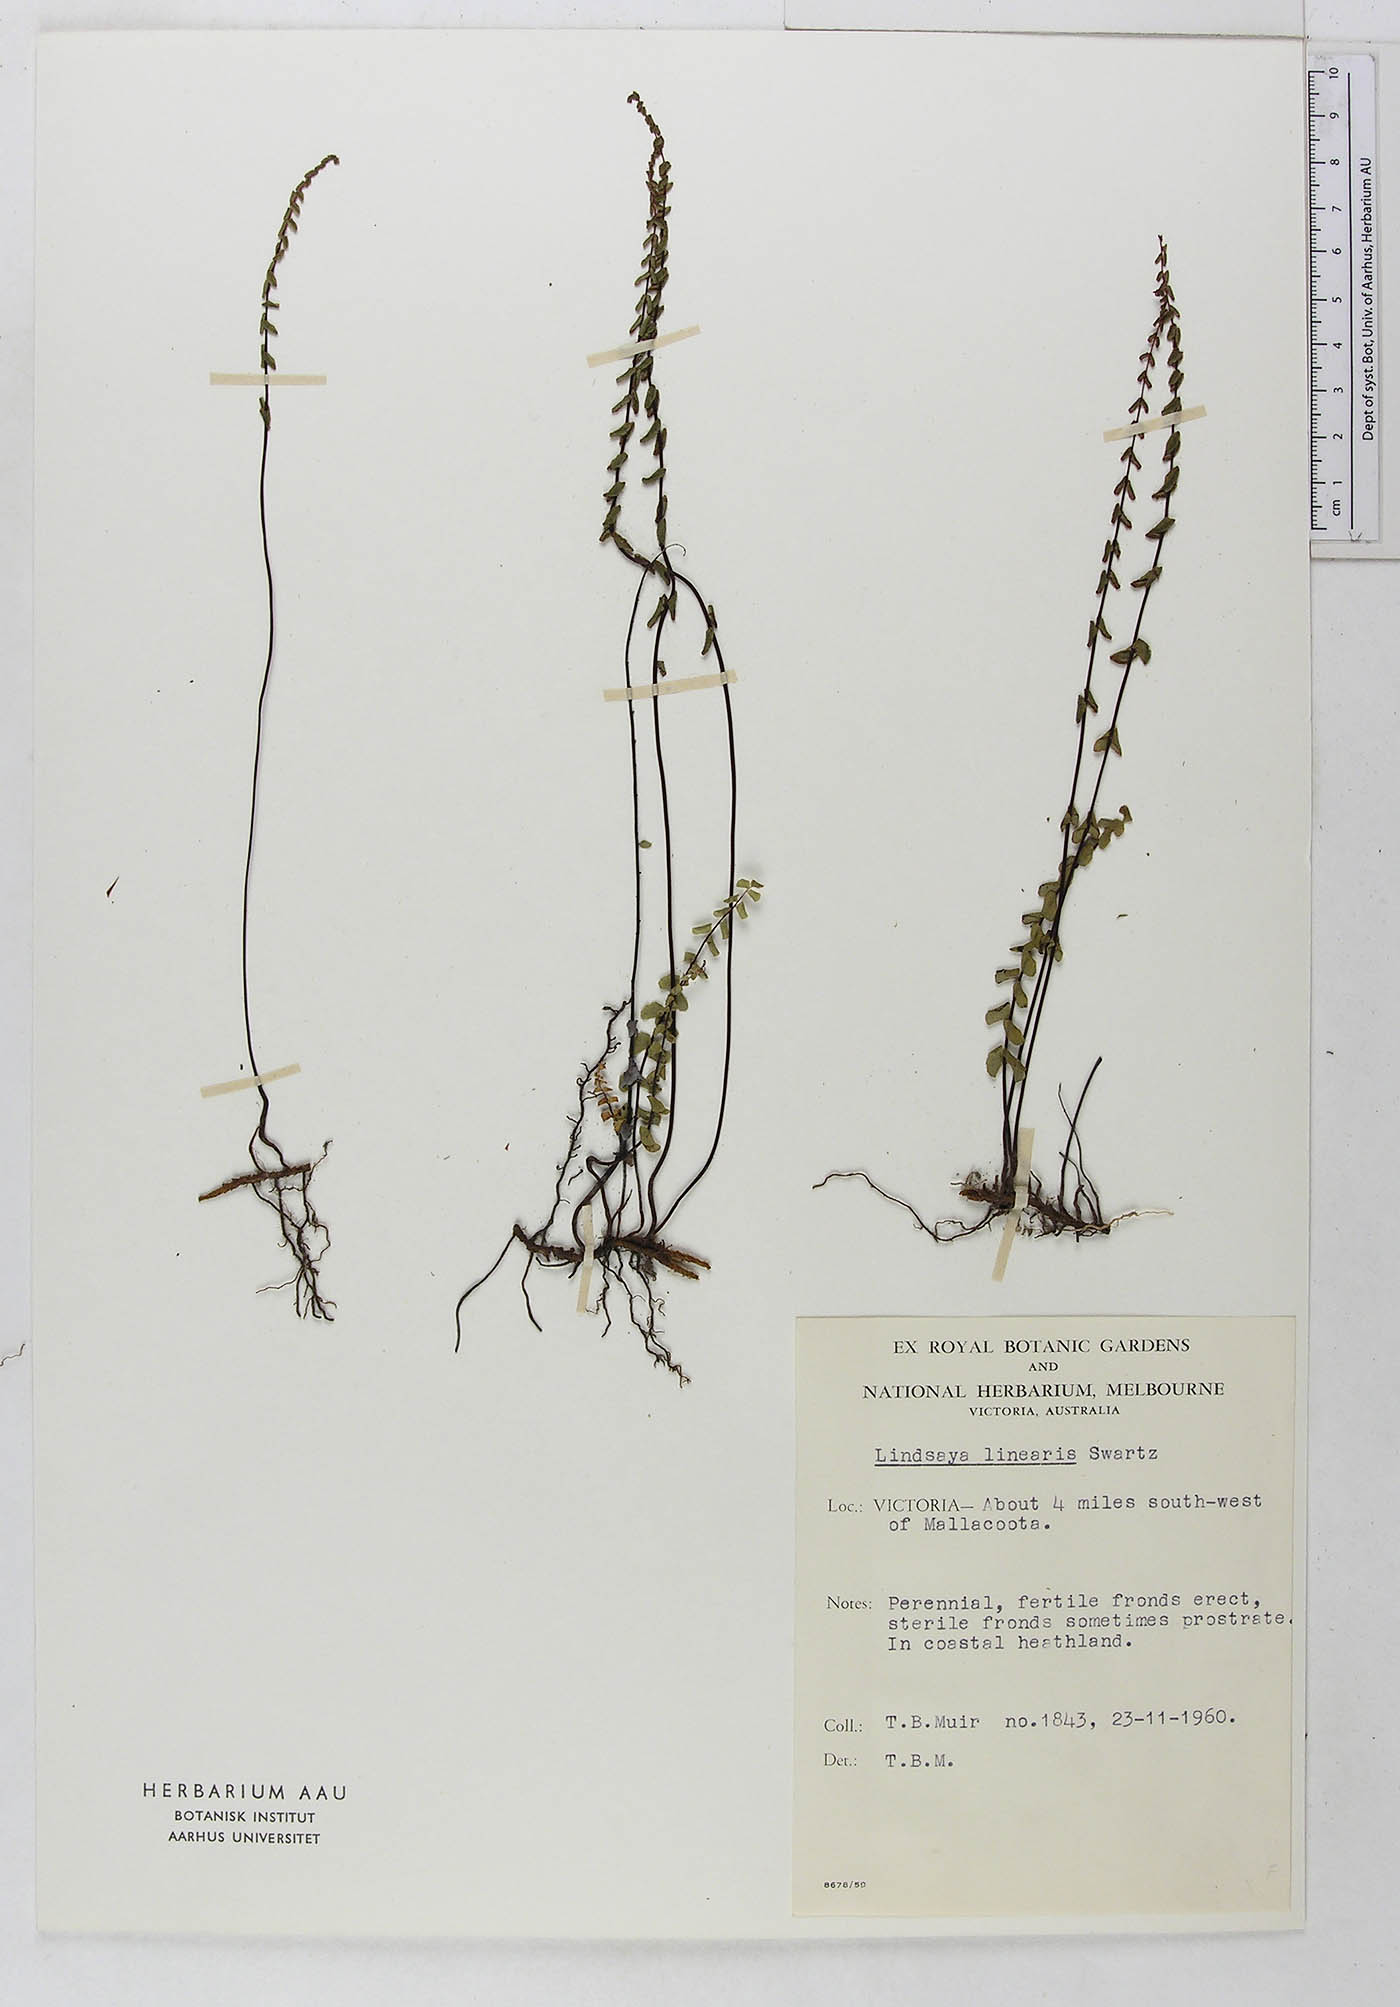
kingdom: Plantae
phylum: Tracheophyta
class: Polypodiopsida
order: Polypodiales
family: Lindsaeaceae
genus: Lindsaea
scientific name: Lindsaea linearis
